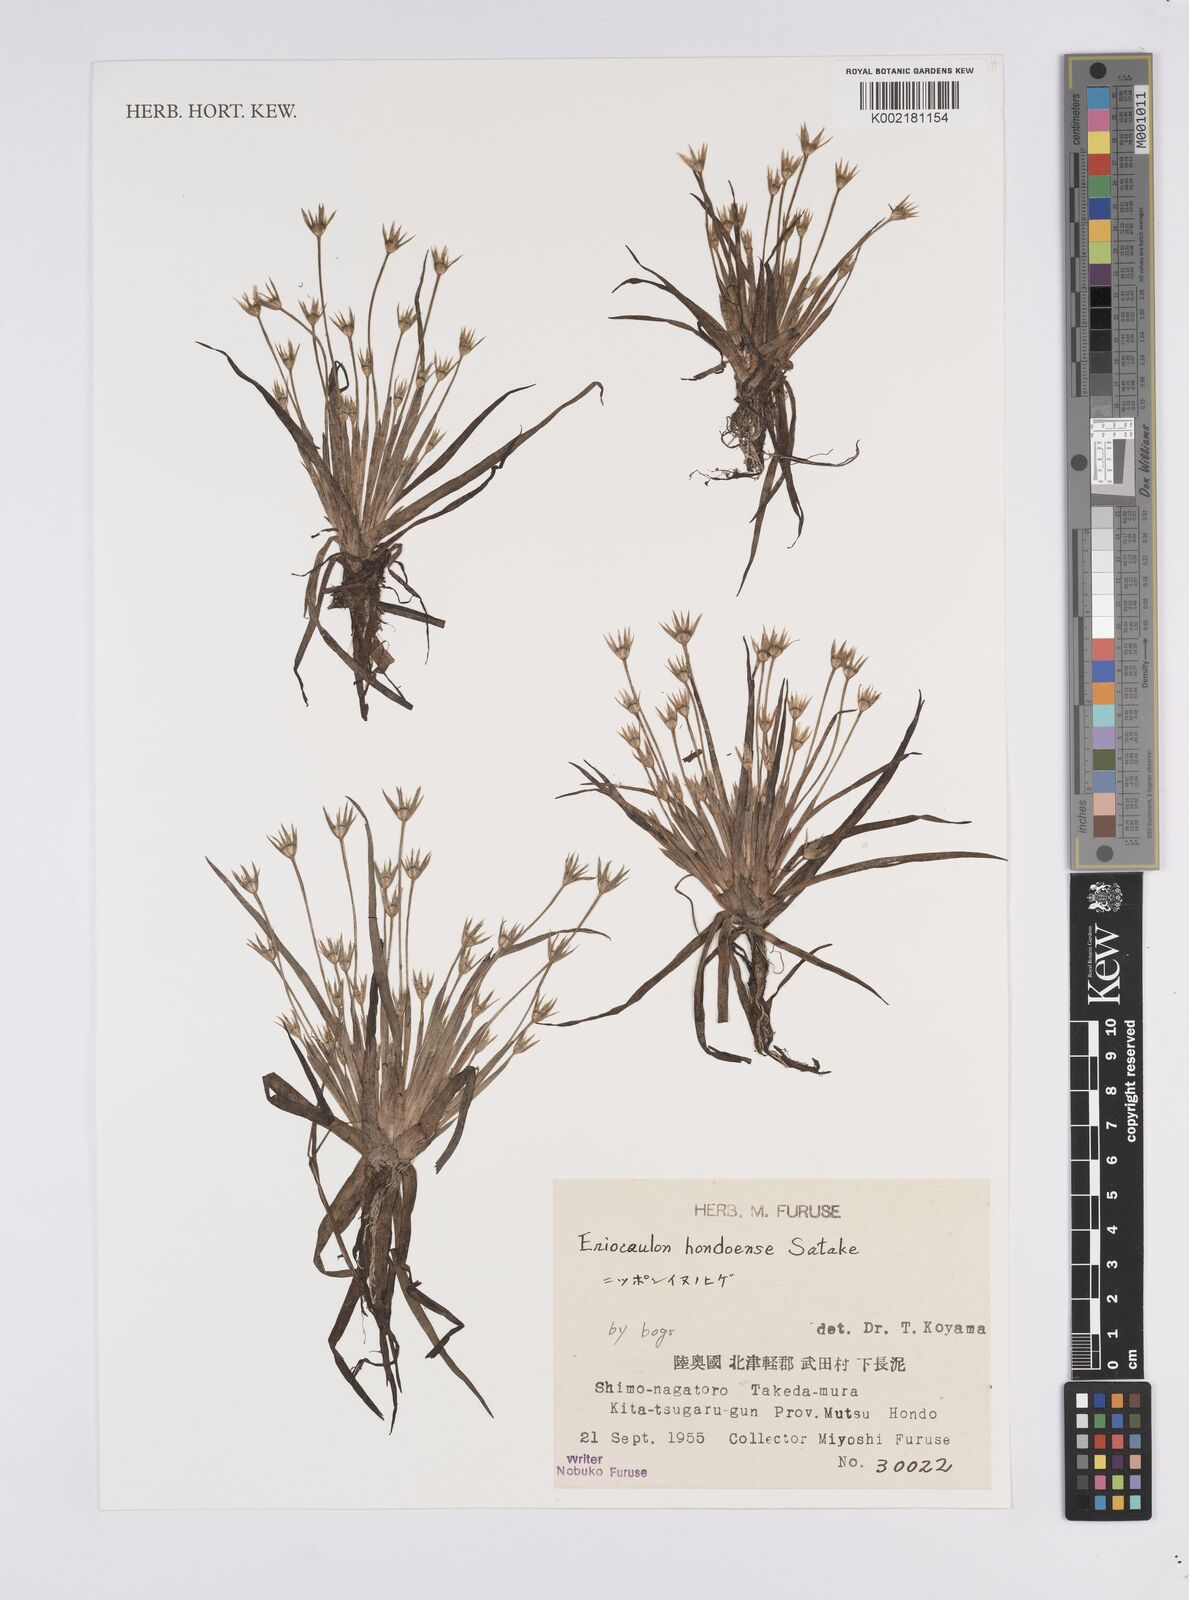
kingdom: Plantae
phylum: Tracheophyta
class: Liliopsida
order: Poales
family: Eriocaulaceae
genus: Eriocaulon
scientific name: Eriocaulon taquetii
